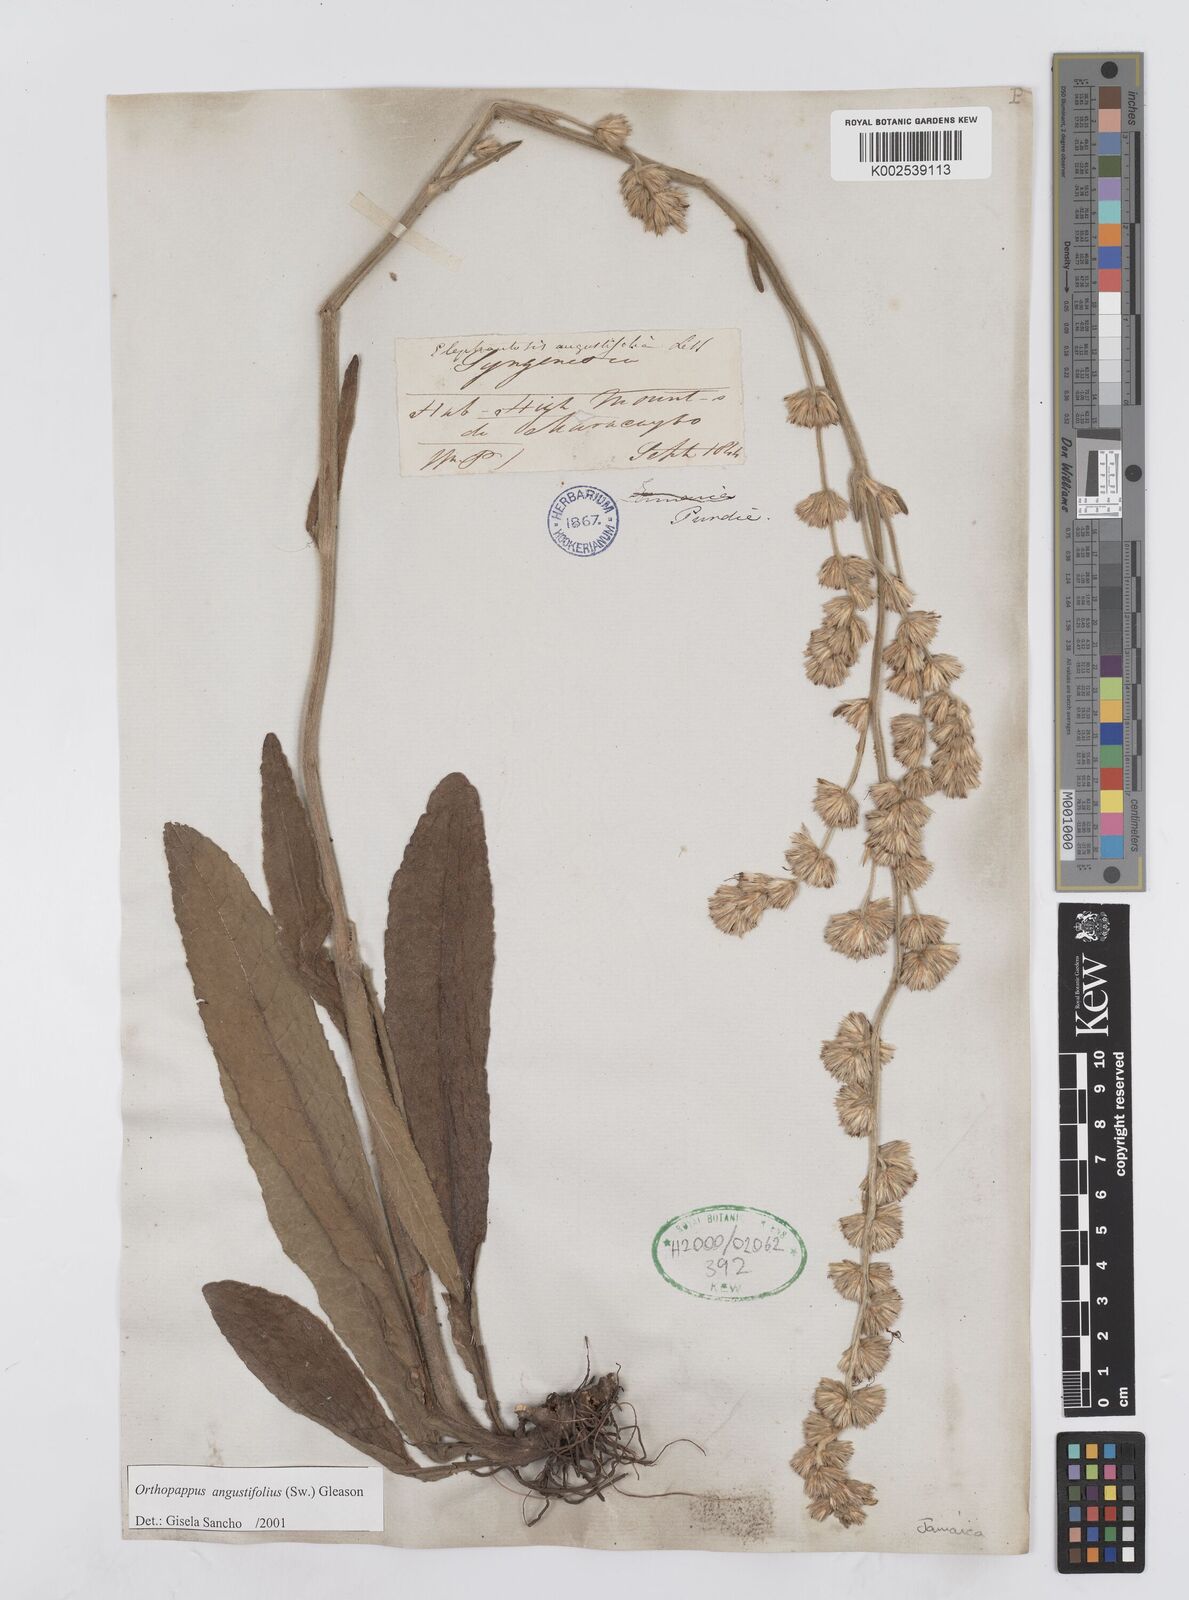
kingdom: Plantae
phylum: Tracheophyta
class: Magnoliopsida
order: Asterales
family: Asteraceae
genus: Orthopappus
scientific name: Orthopappus angustifolius
